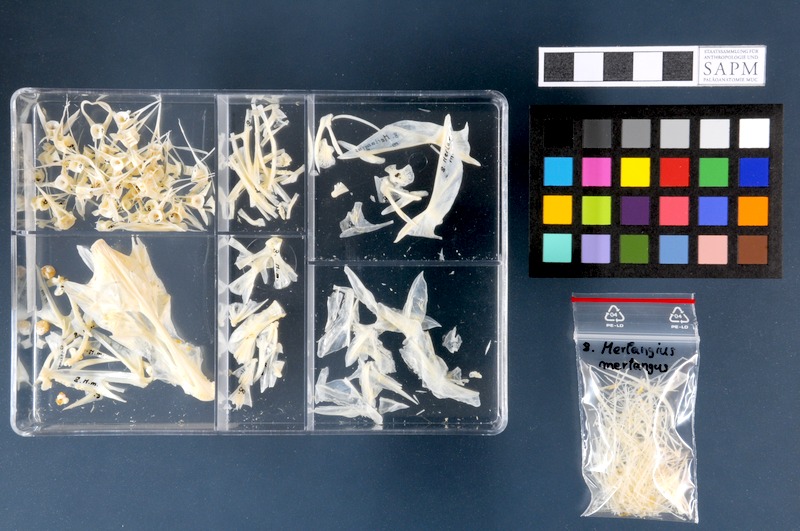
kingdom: Animalia
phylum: Chordata
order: Gadiformes
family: Gadidae
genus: Merlangius
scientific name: Merlangius merlangus
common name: Whiting
